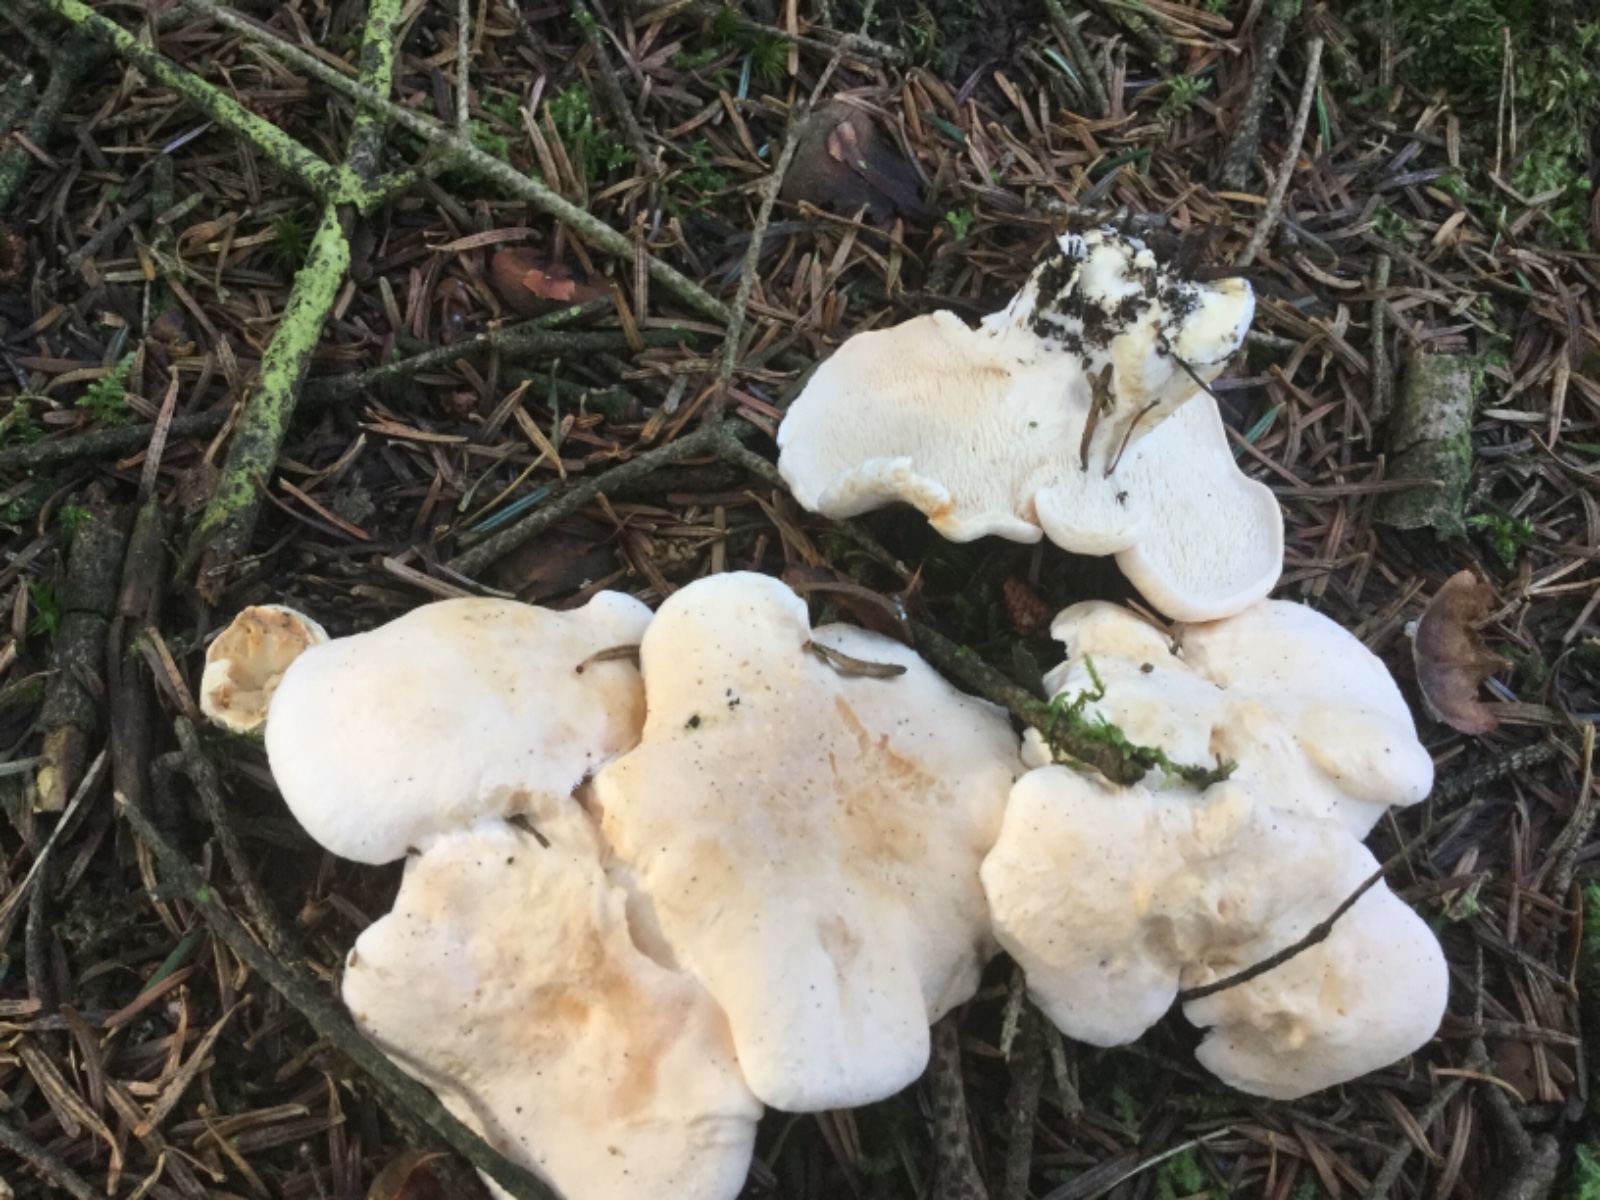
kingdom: Fungi
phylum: Basidiomycota
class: Agaricomycetes
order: Cantharellales
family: Hydnaceae
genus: Hydnum
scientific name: Hydnum repandum
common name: almindelig pigsvamp
